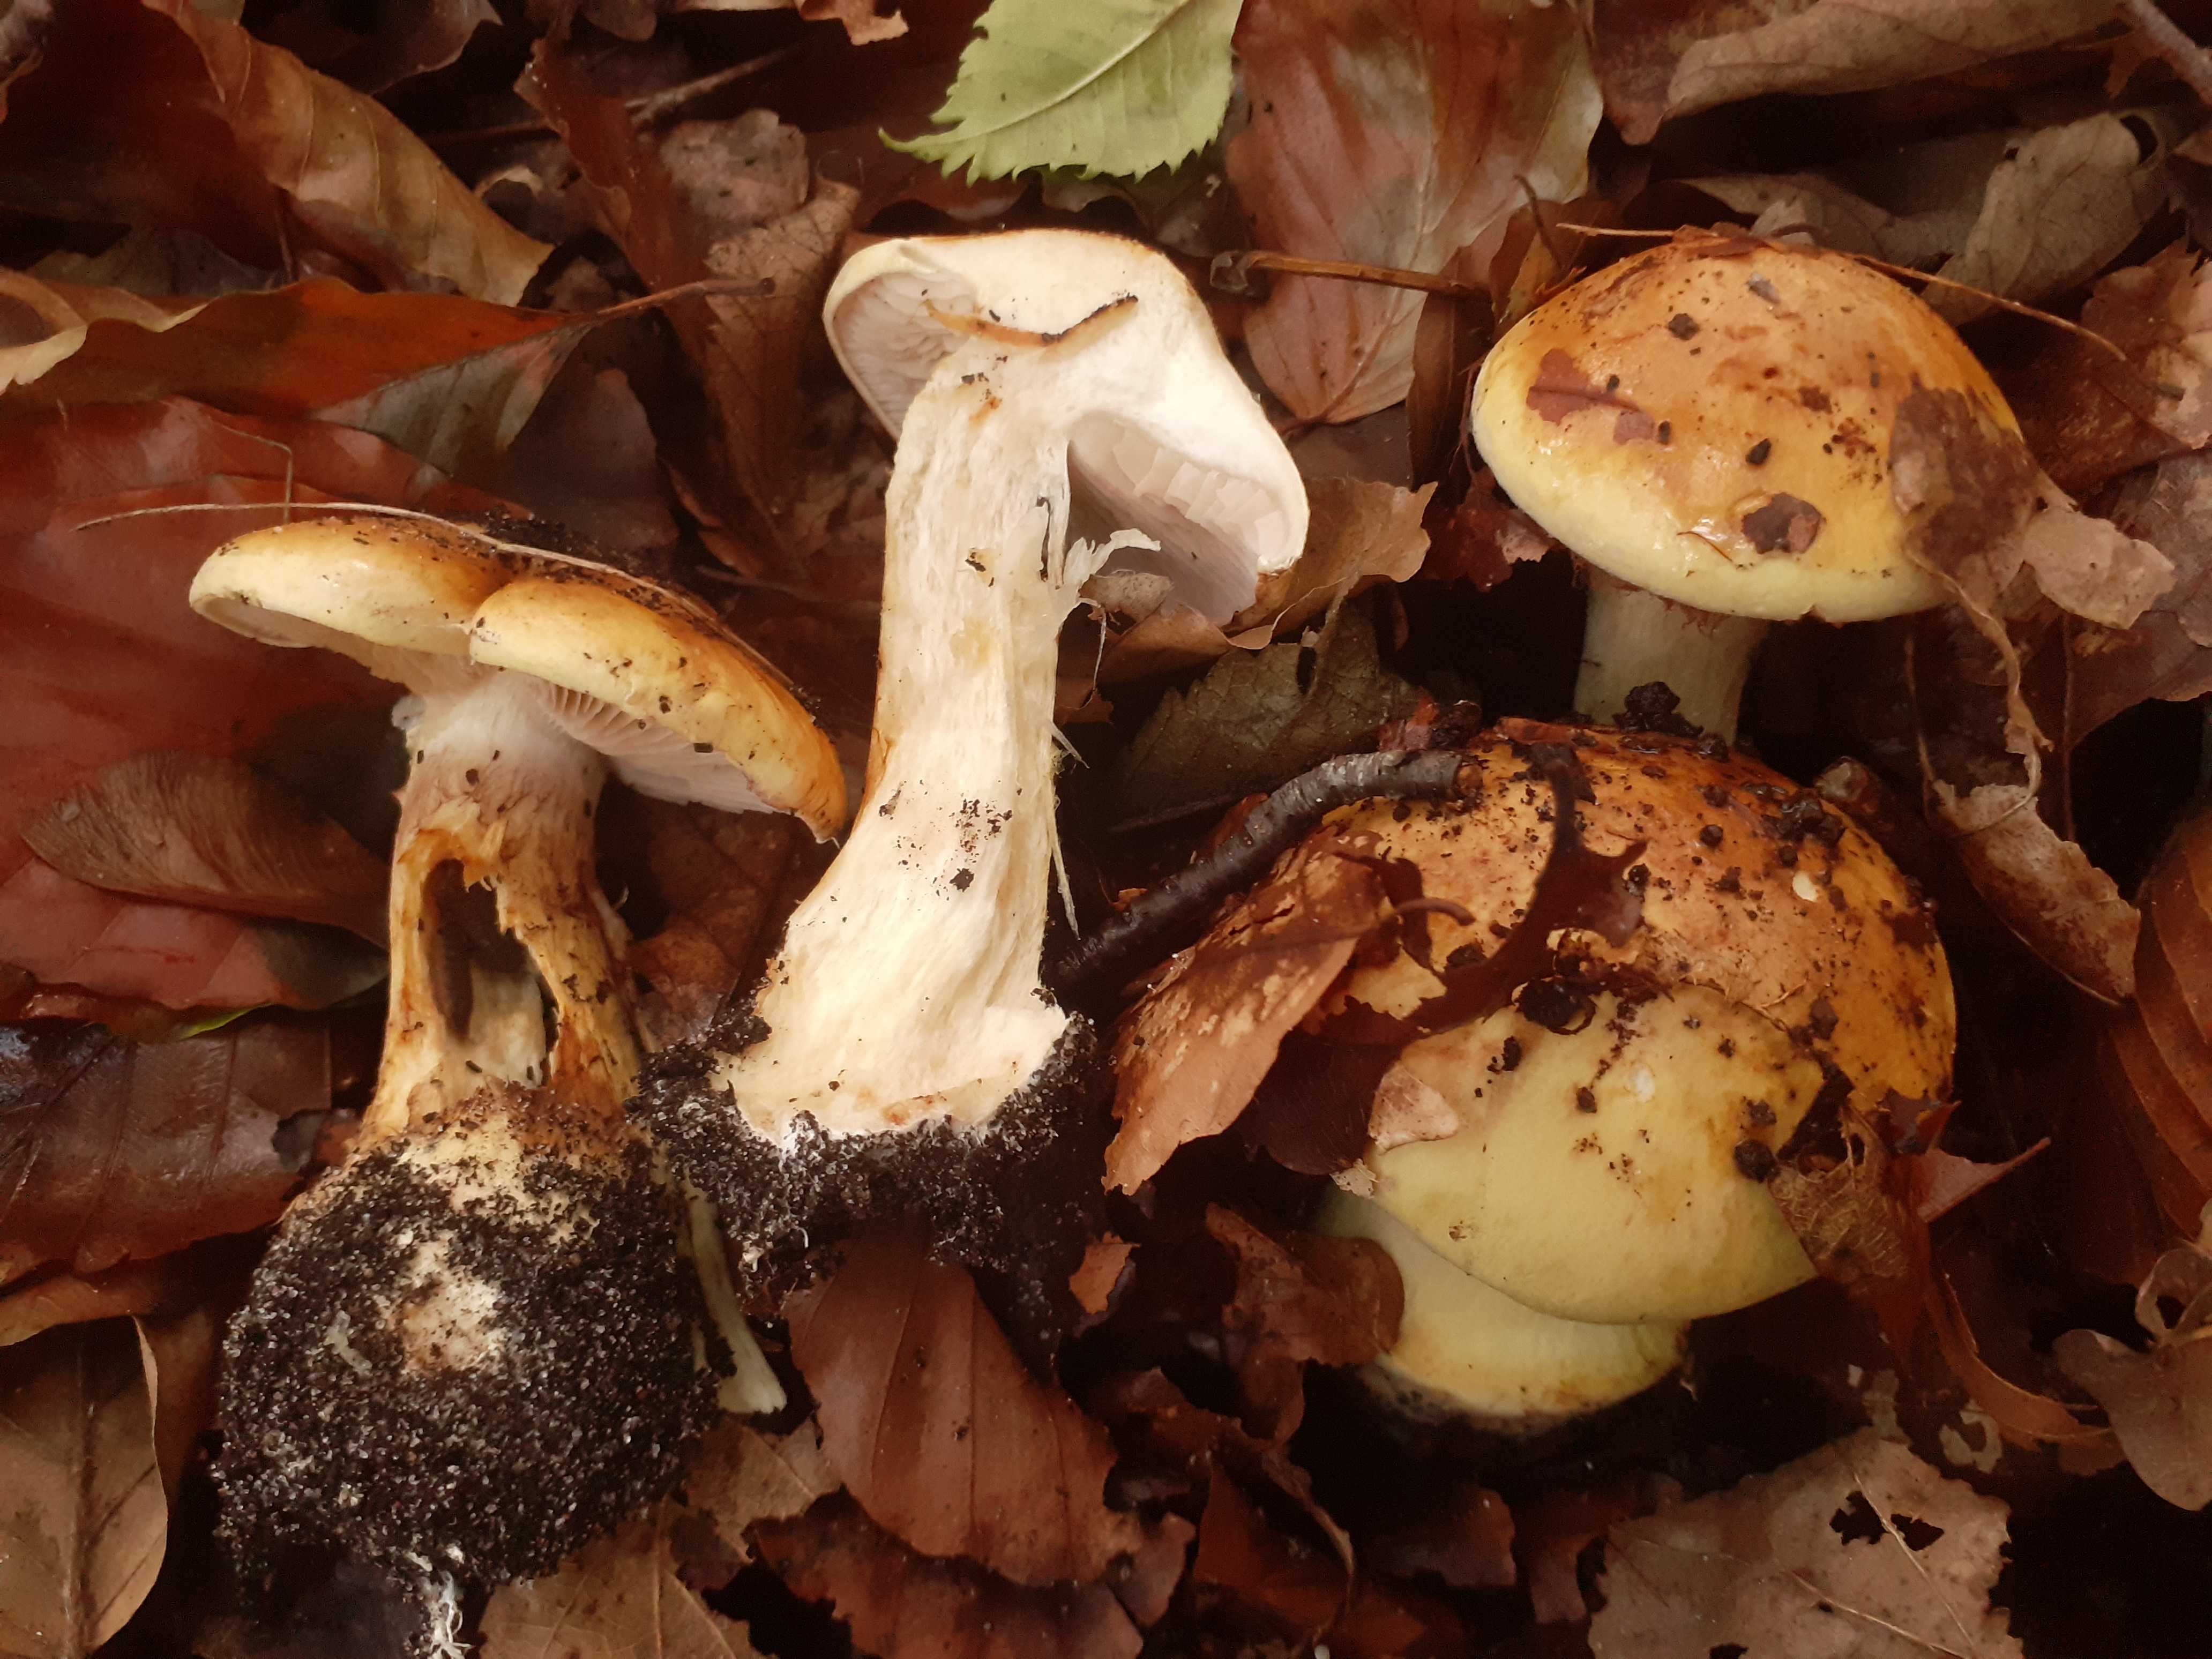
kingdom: Fungi
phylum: Basidiomycota
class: Agaricomycetes
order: Agaricales
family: Cortinariaceae
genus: Phlegmacium
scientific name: Phlegmacium caesiocortinatum
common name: rundsporet slørhat
